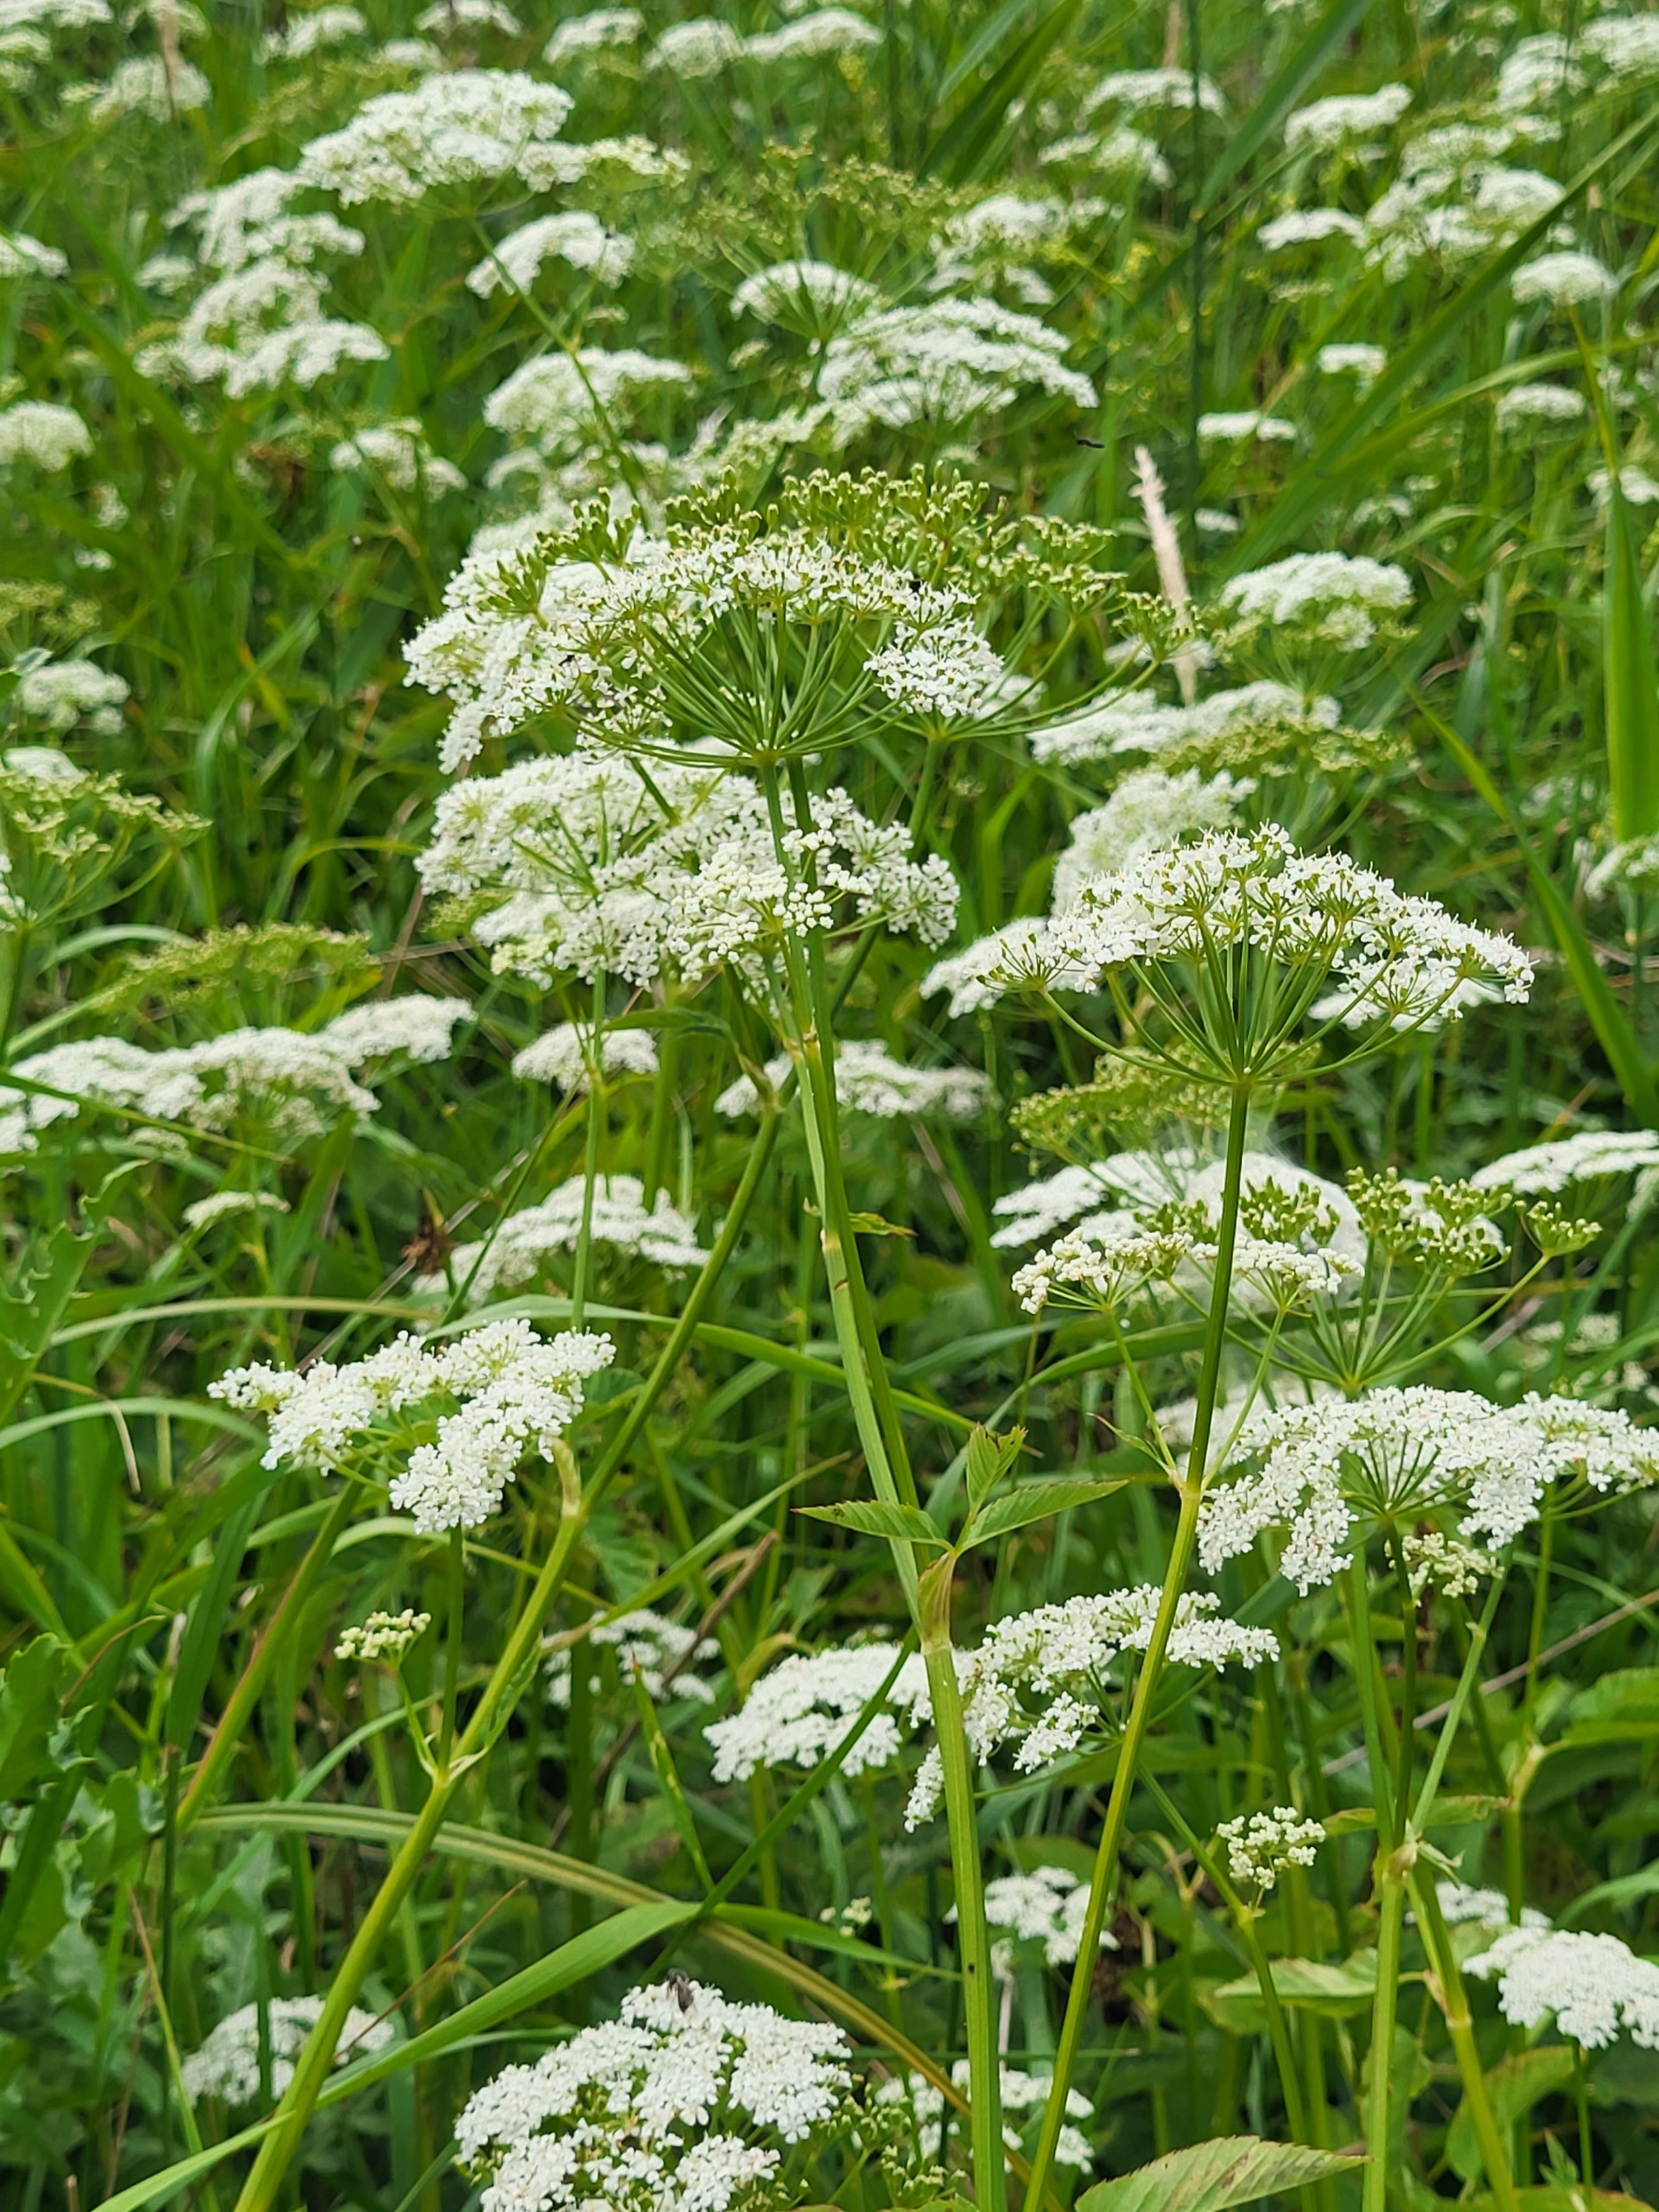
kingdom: Plantae
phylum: Tracheophyta
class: Magnoliopsida
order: Apiales
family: Apiaceae
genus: Aegopodium
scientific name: Aegopodium podagraria
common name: Skvalderkål
